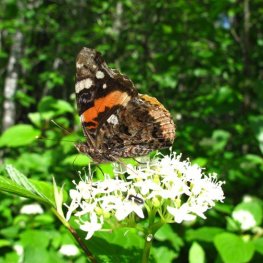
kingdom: Animalia
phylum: Arthropoda
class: Insecta
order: Lepidoptera
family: Nymphalidae
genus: Vanessa
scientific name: Vanessa atalanta
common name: Red Admiral
